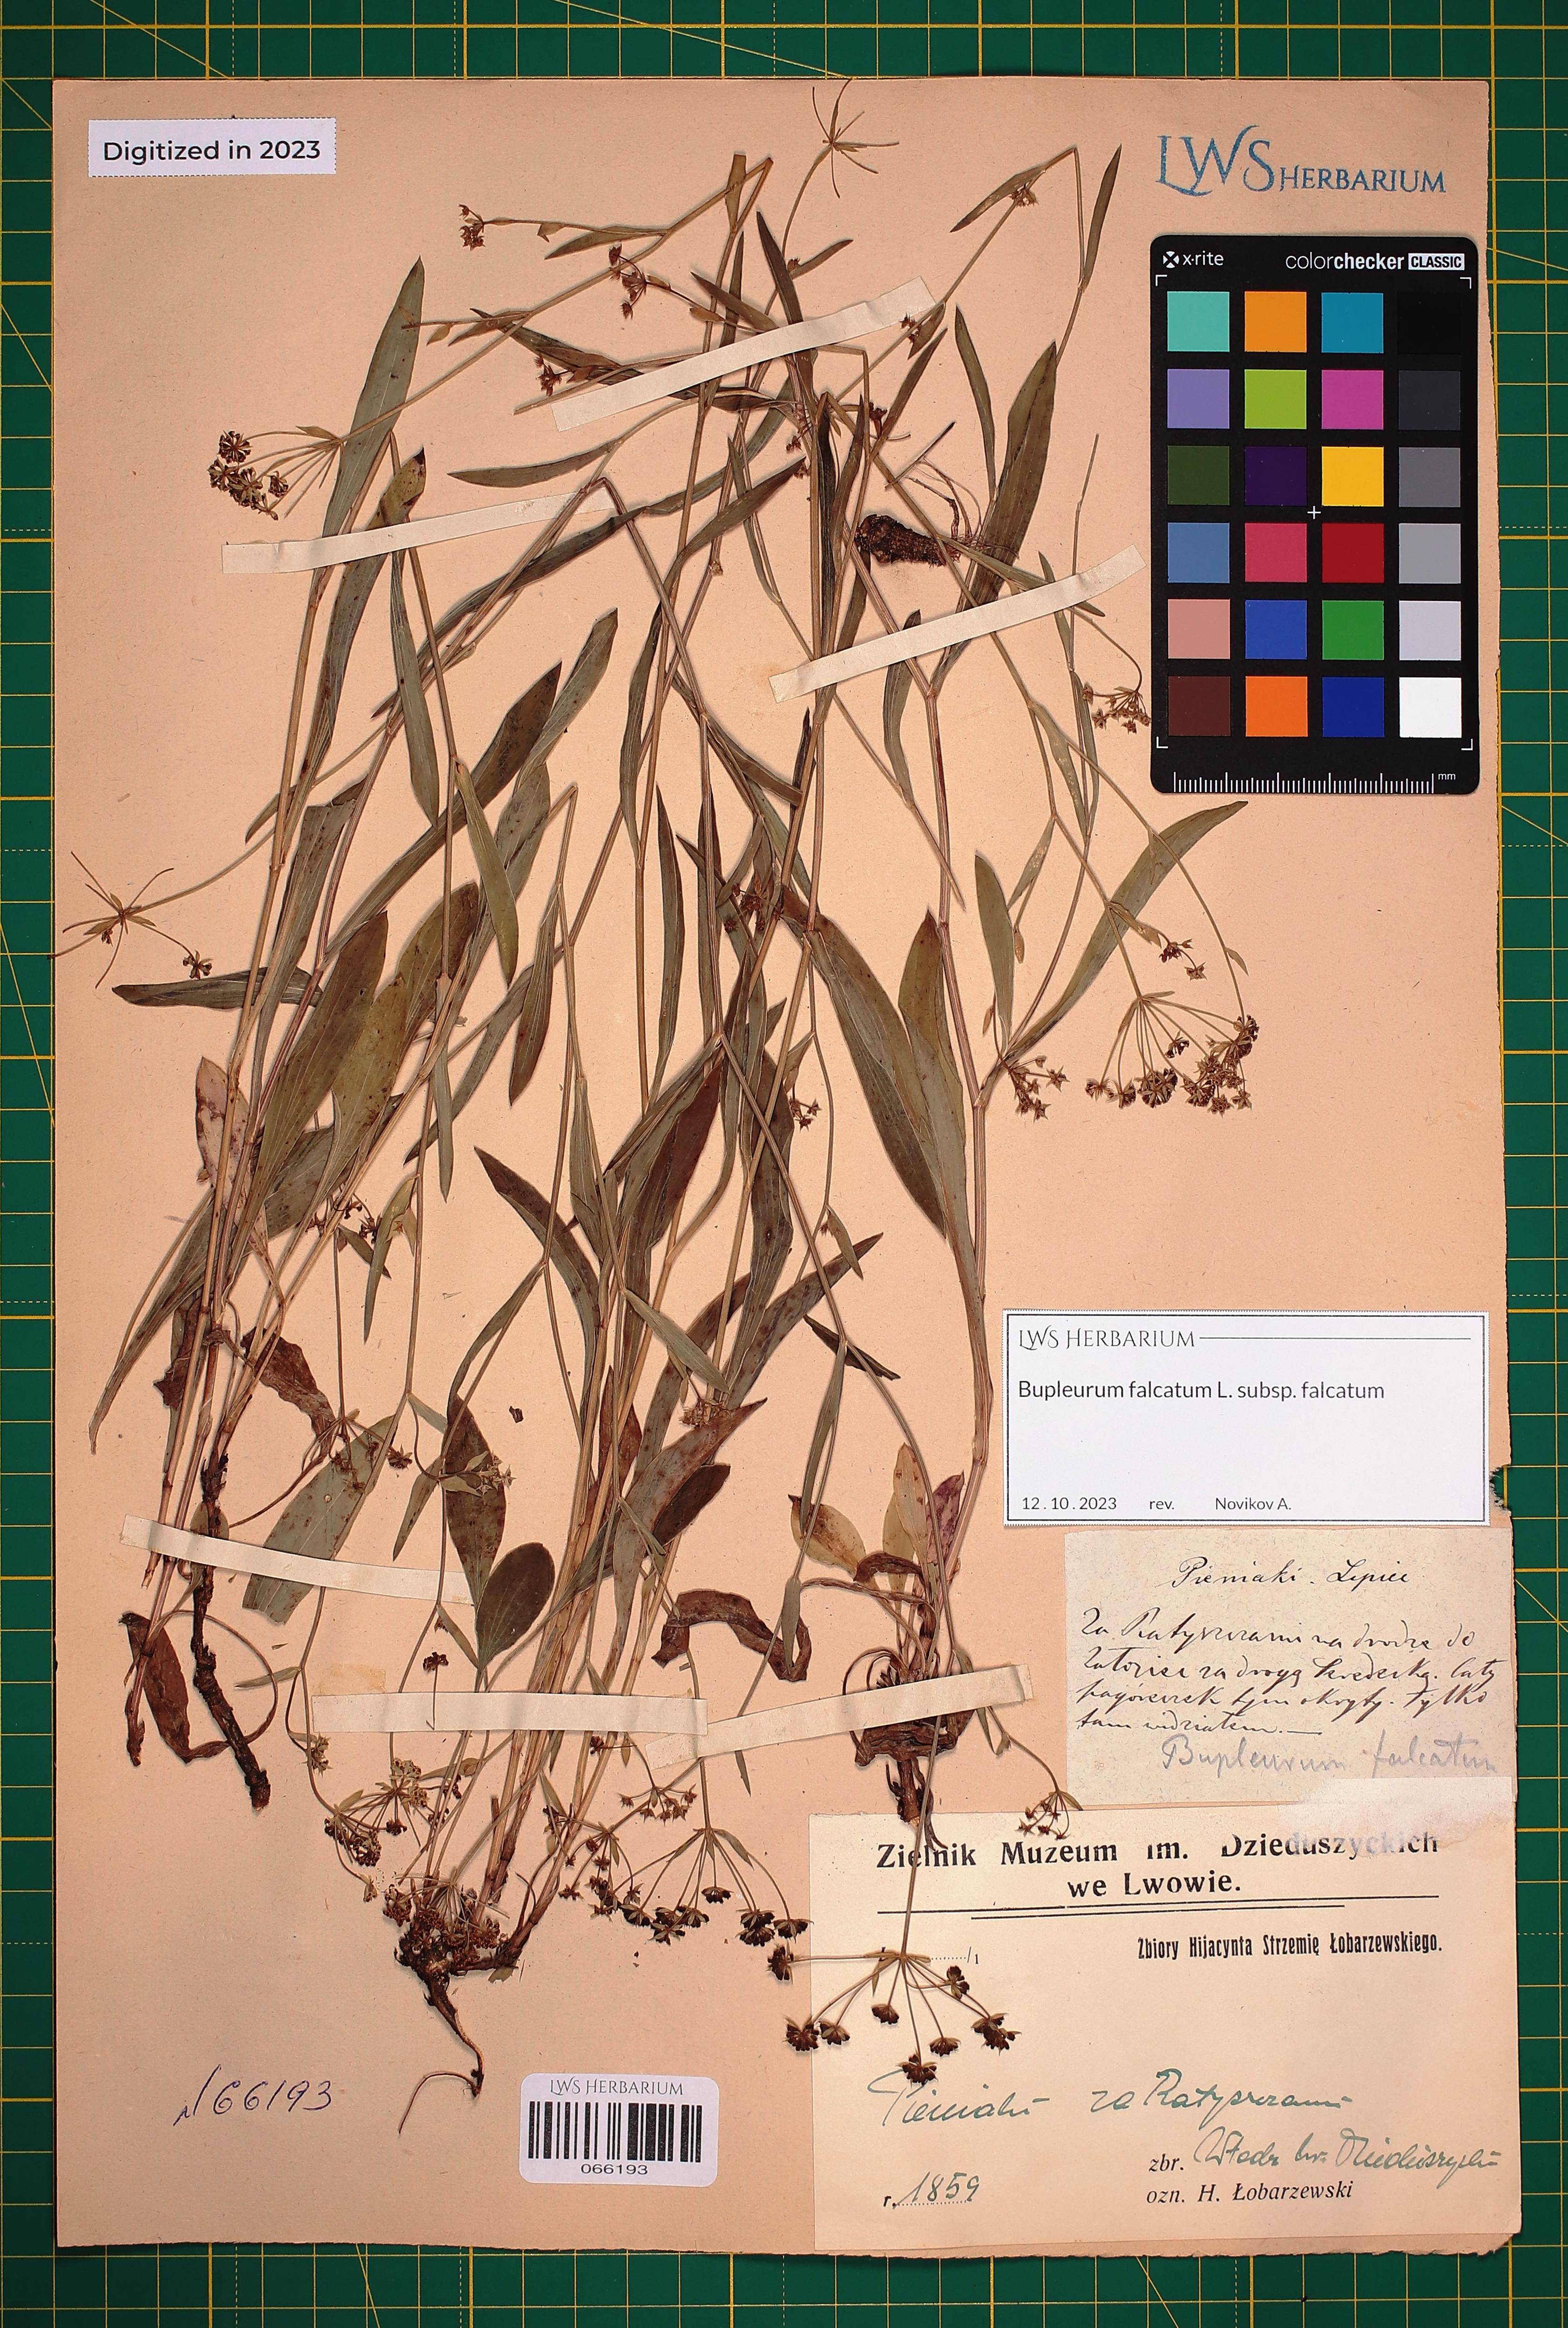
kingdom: Plantae
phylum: Tracheophyta
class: Magnoliopsida
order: Apiales
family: Apiaceae
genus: Bupleurum
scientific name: Bupleurum falcatum
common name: Sickle-leaved hare's-ear
